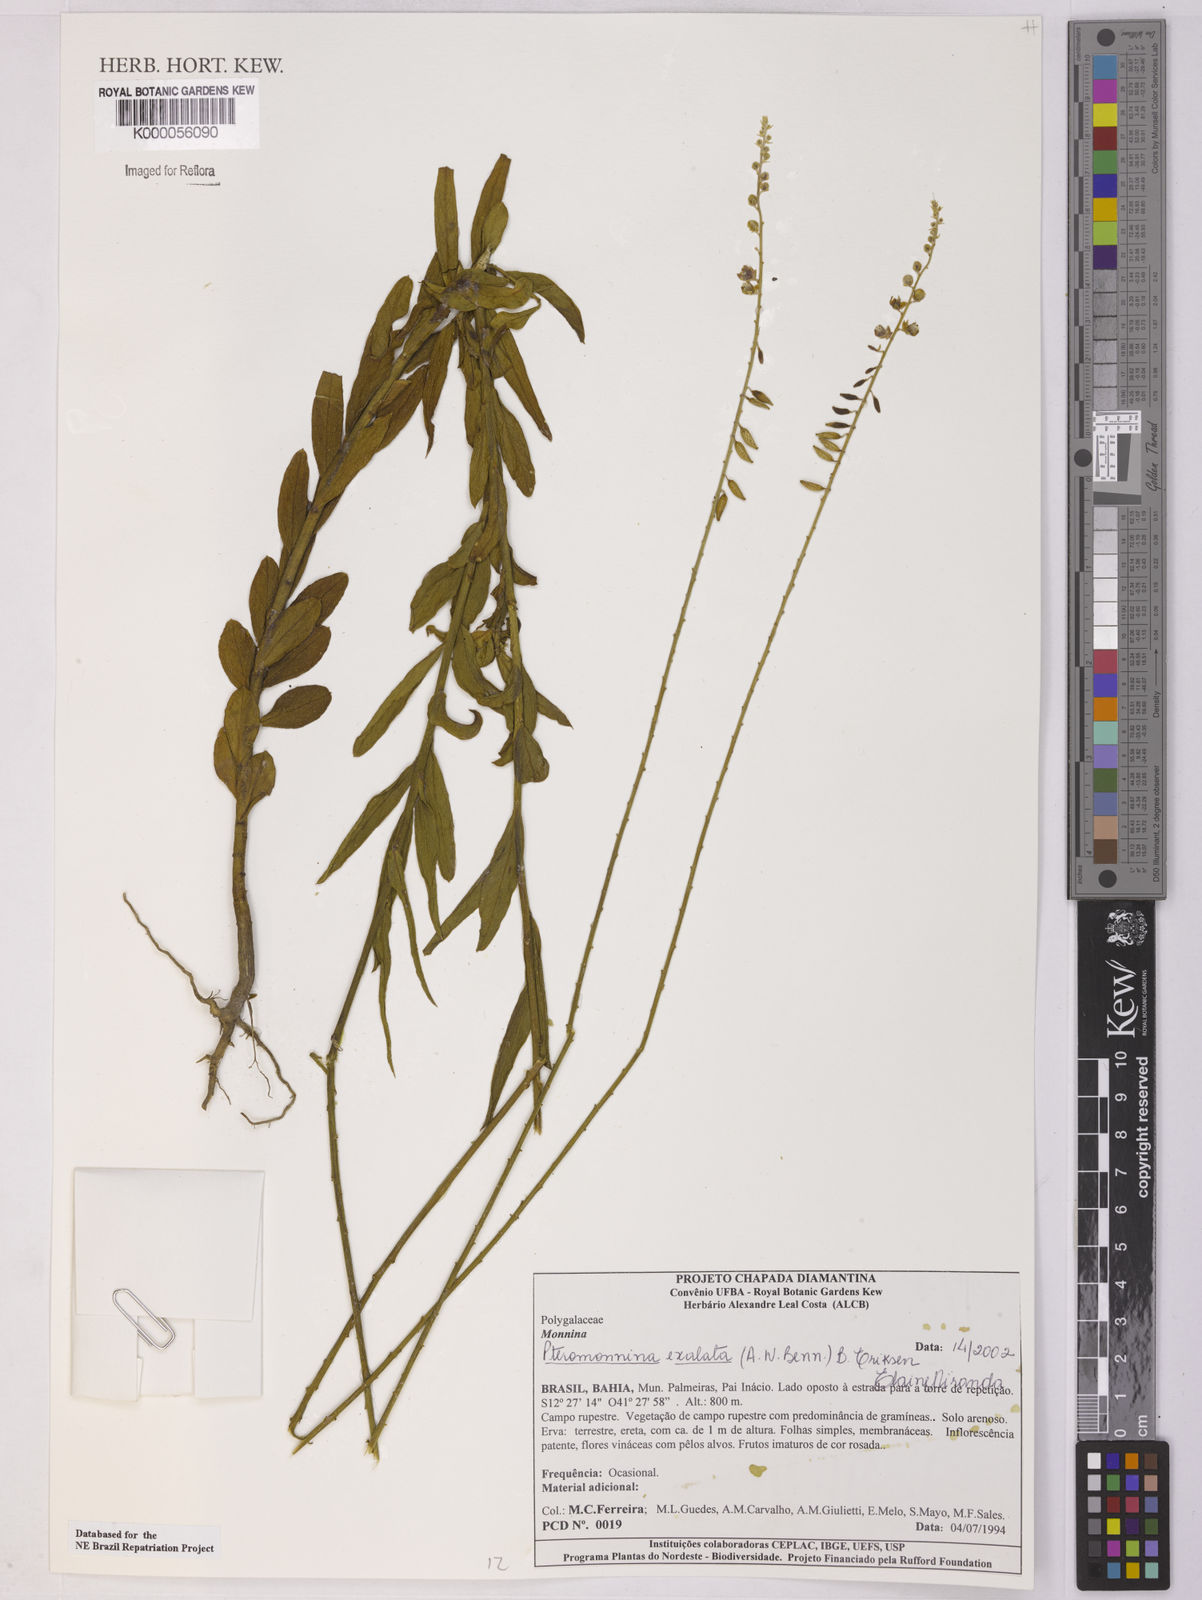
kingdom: Plantae
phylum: Tracheophyta
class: Magnoliopsida
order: Fabales
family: Polygalaceae
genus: Monnina
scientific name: Monnina exalata
